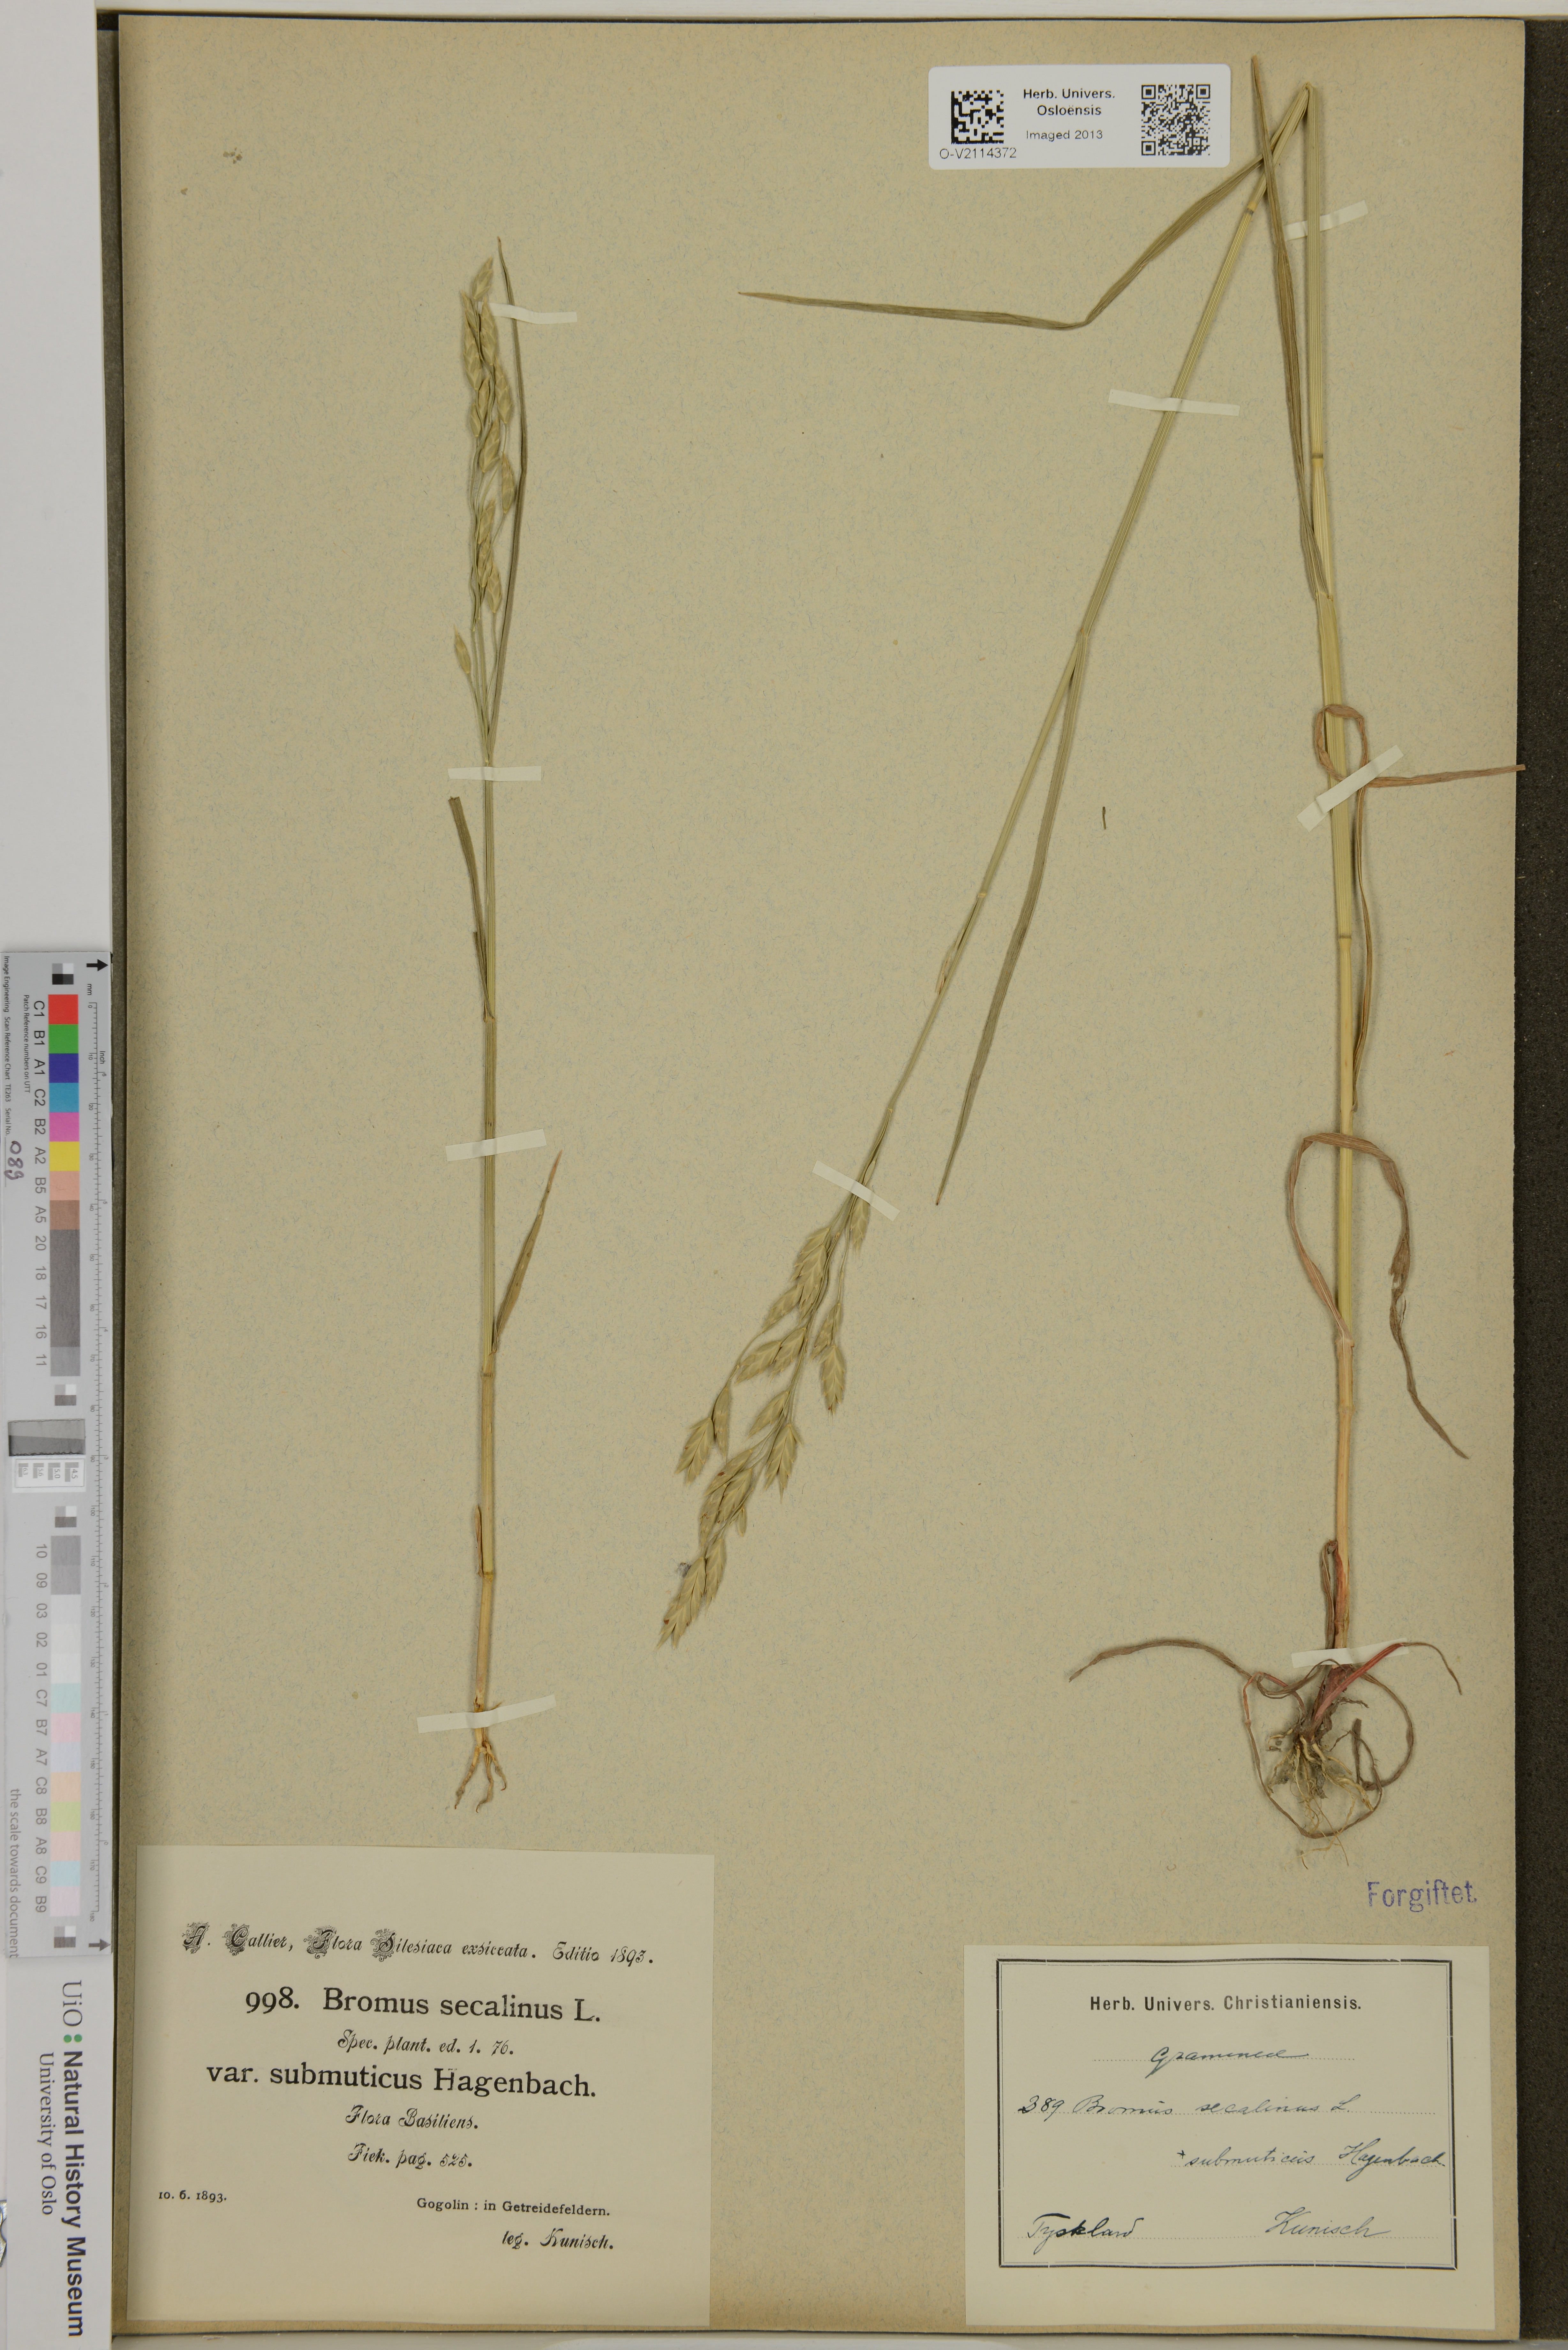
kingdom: Plantae
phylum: Tracheophyta
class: Liliopsida
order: Poales
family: Poaceae
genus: Bromus
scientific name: Bromus secalinus
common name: Rye brome
